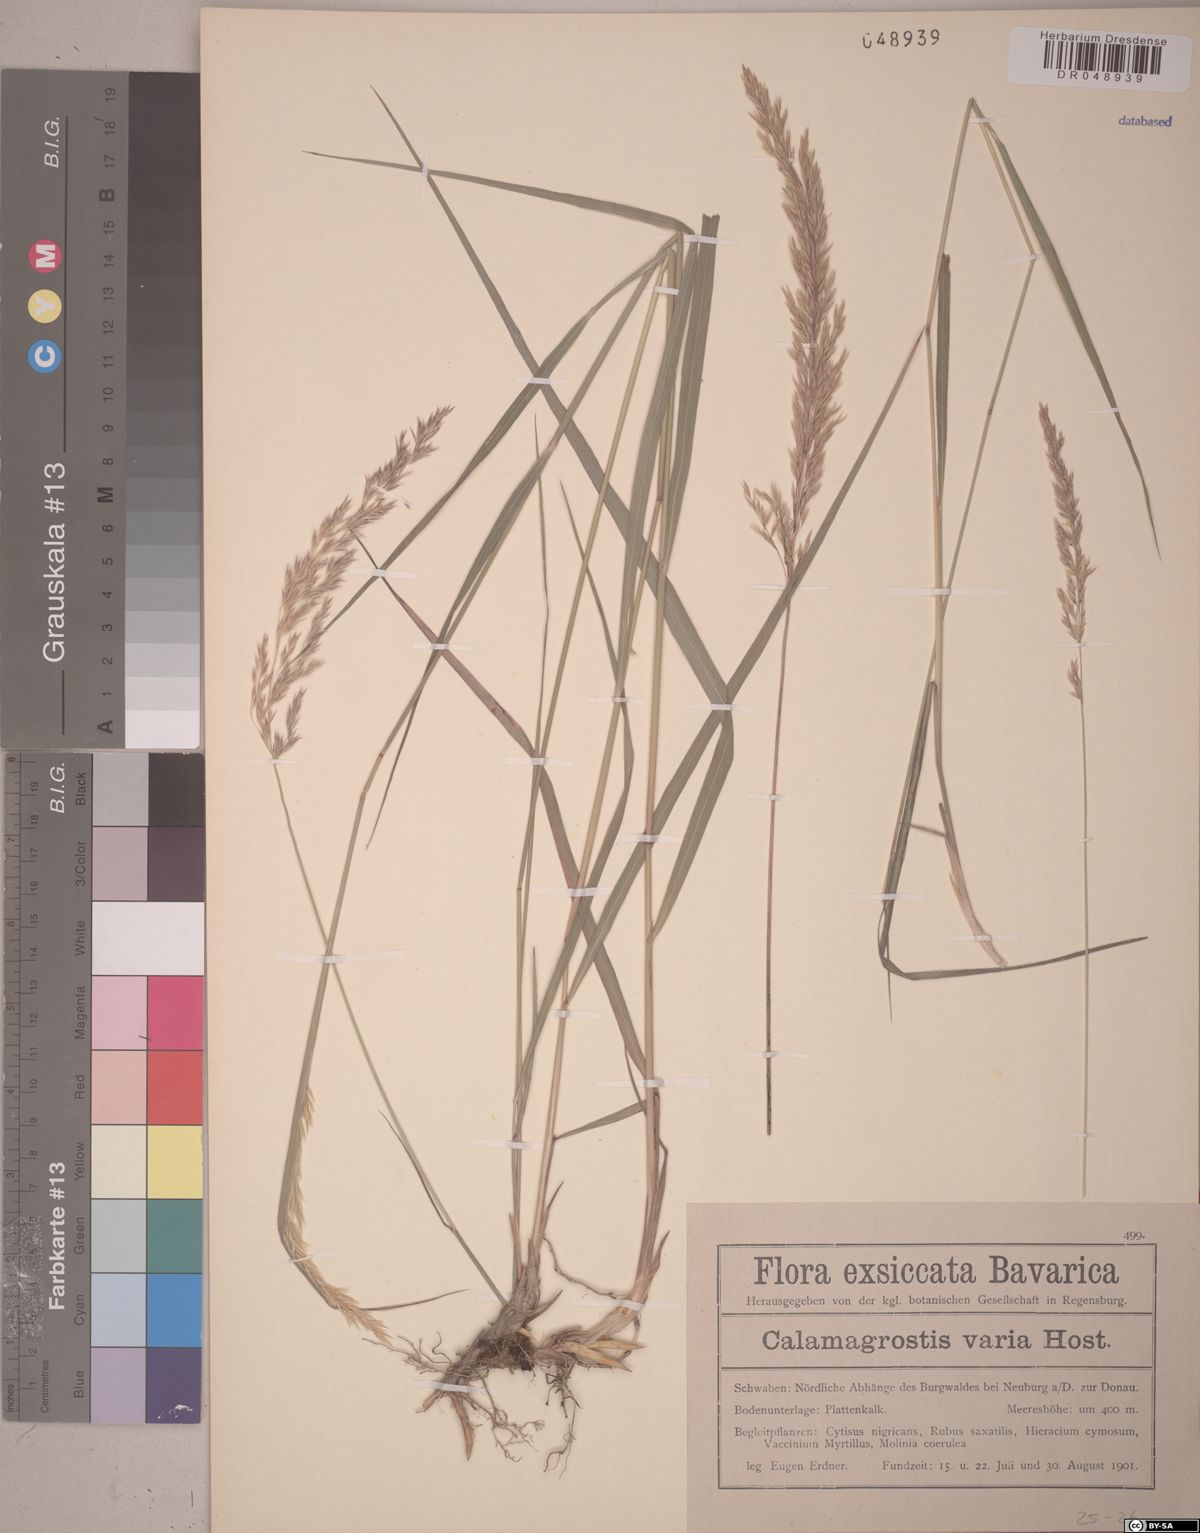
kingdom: Plantae
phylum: Tracheophyta
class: Liliopsida
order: Poales
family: Poaceae
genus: Calamagrostis
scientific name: Calamagrostis varia
